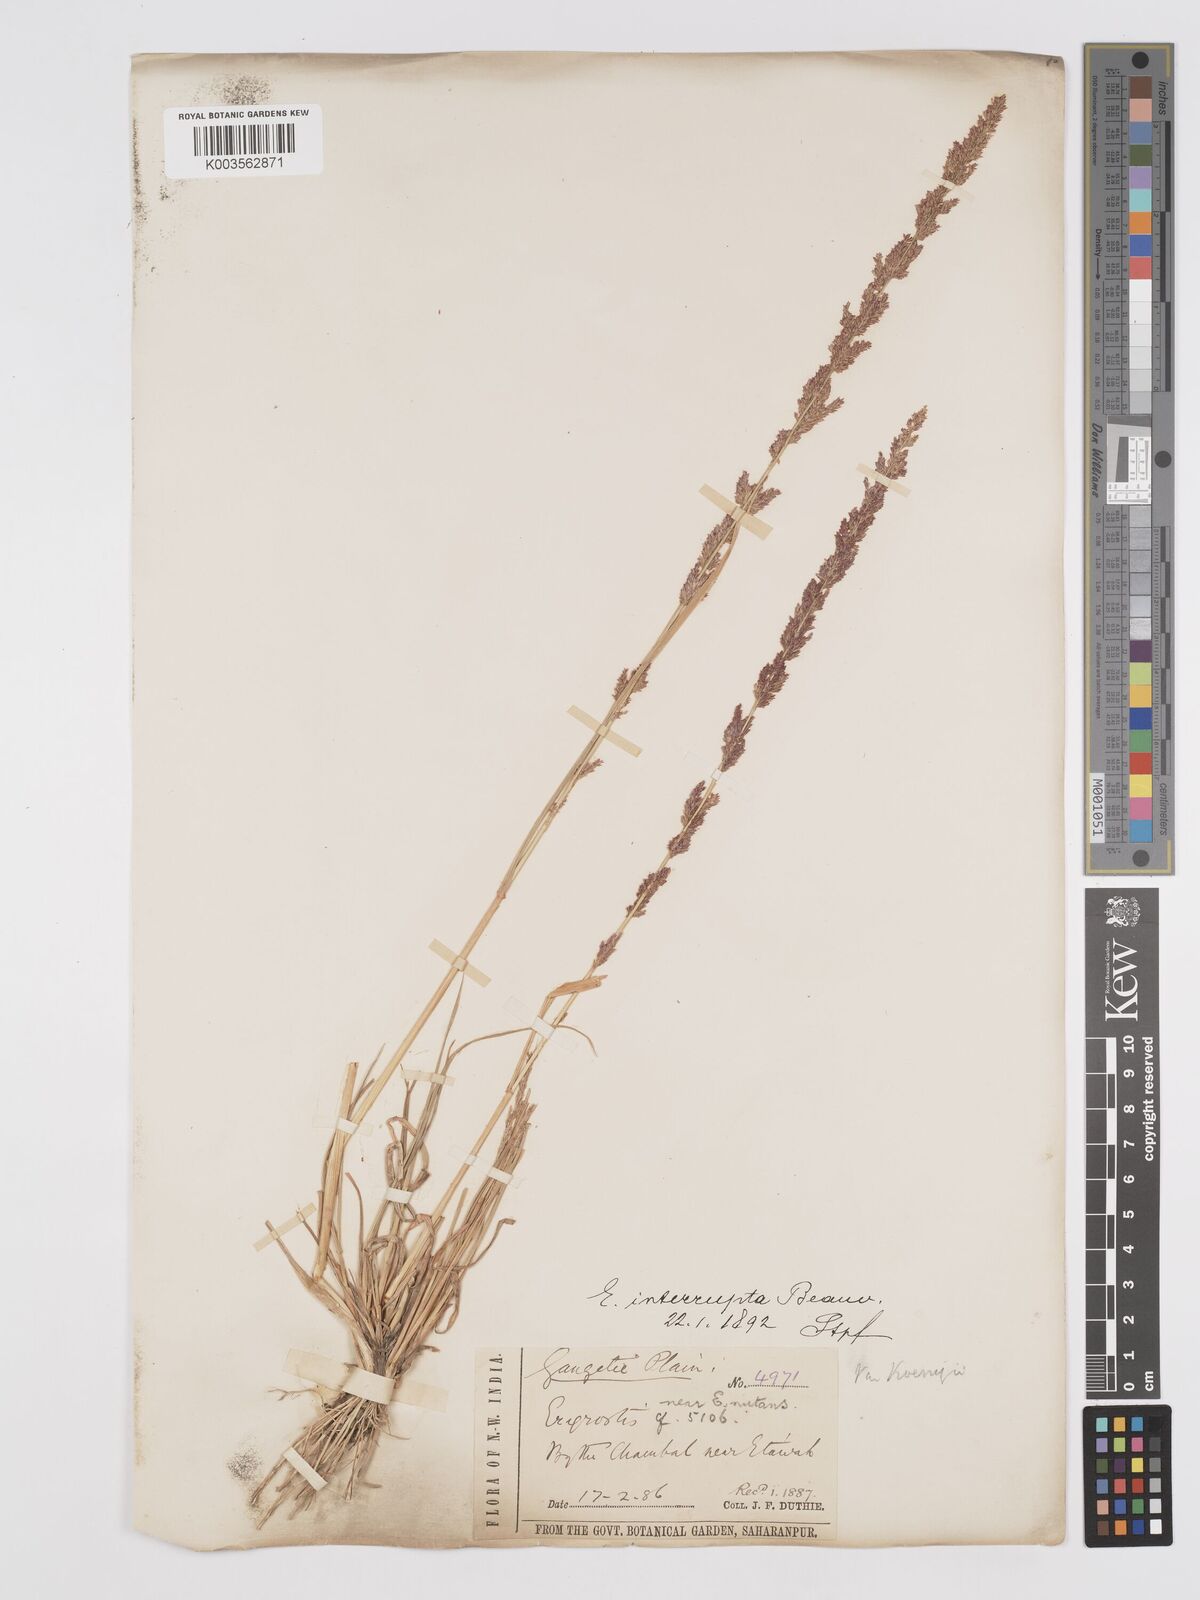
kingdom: Plantae
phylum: Tracheophyta
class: Liliopsida
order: Poales
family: Poaceae
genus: Eragrostis
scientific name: Eragrostis japonica
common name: Pond lovegrass
